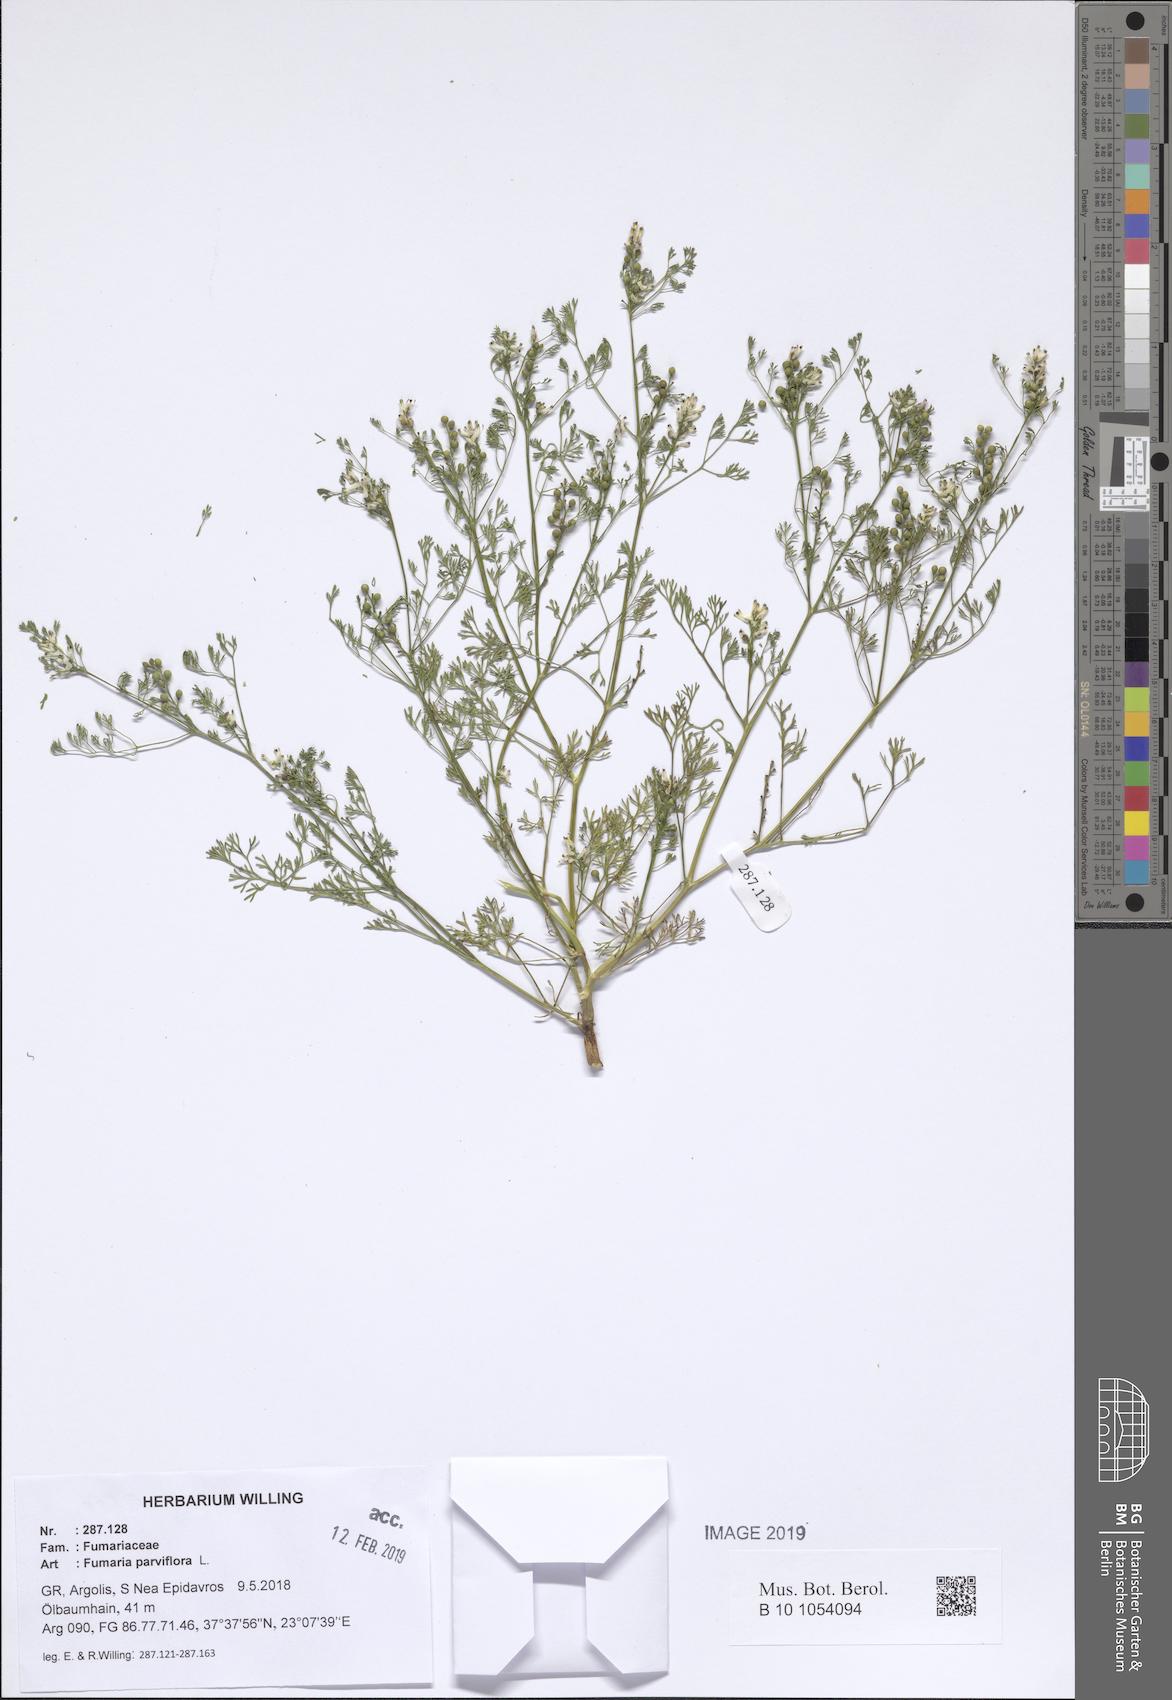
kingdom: Plantae
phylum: Tracheophyta
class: Magnoliopsida
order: Ranunculales
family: Papaveraceae
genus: Fumaria
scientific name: Fumaria parviflora
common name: Fine-leaved fumitory
